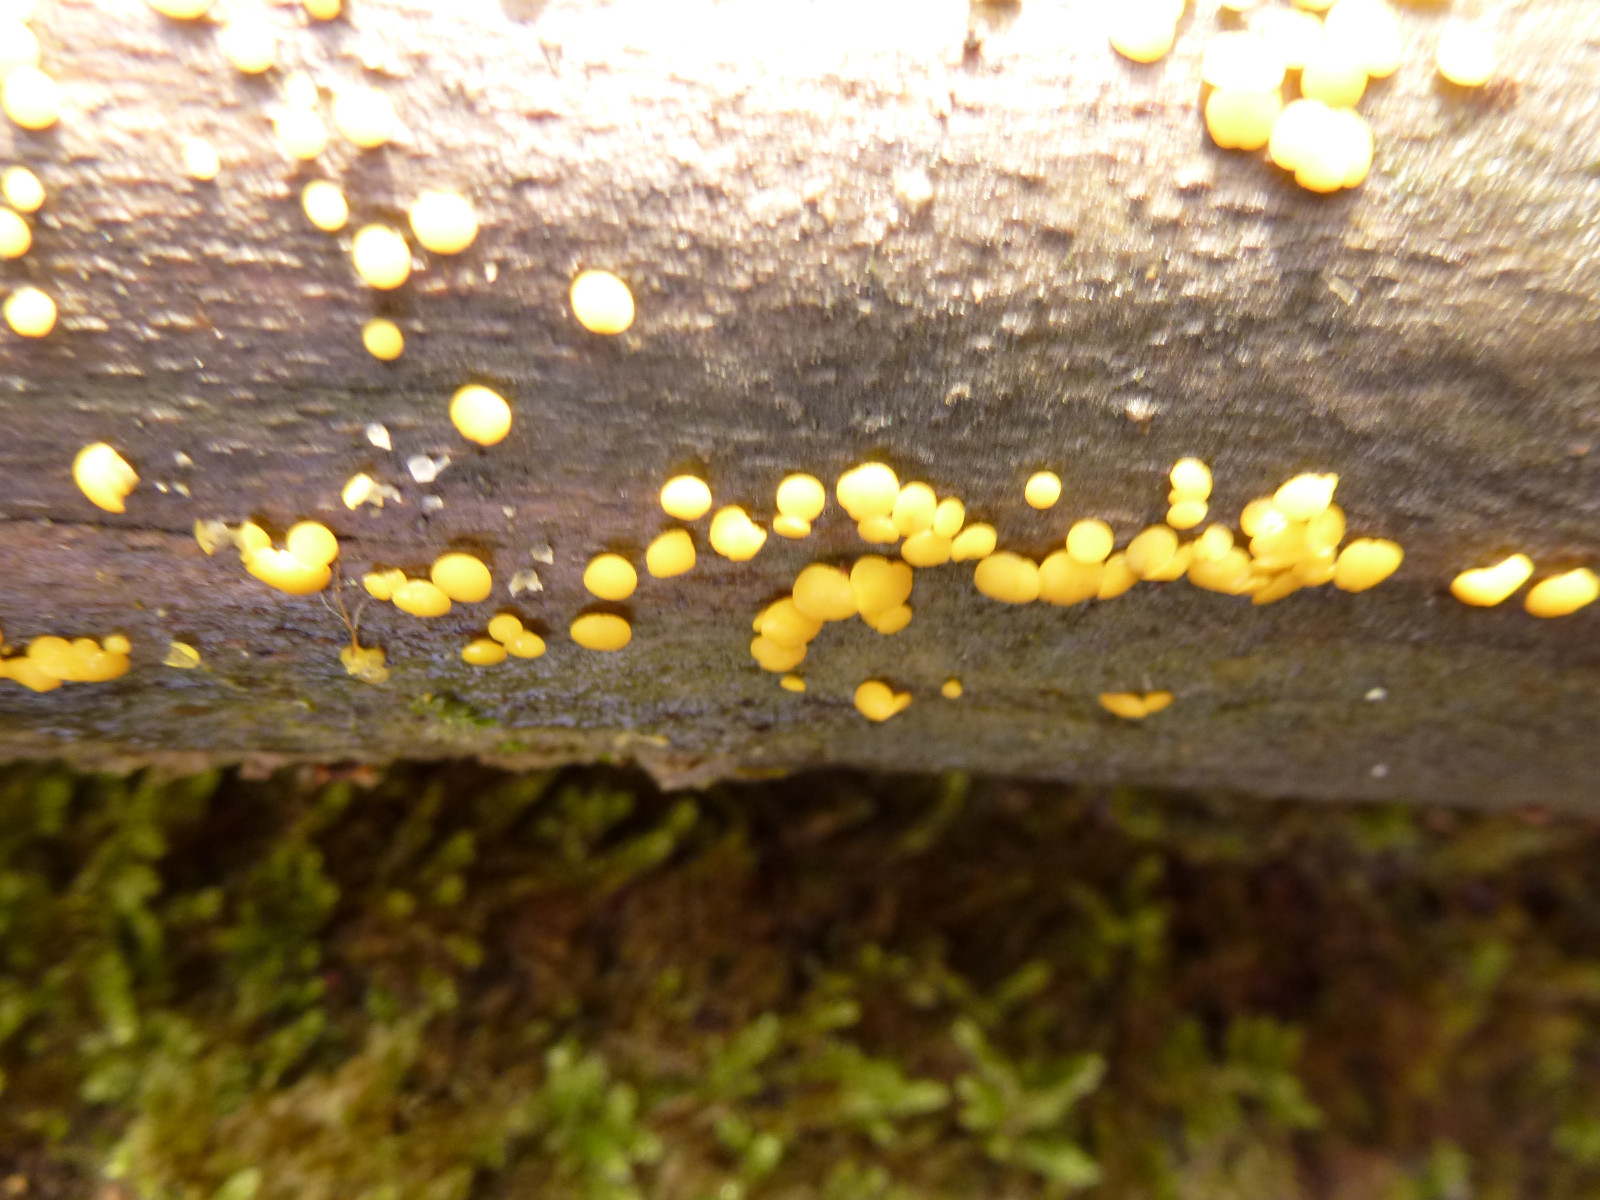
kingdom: Fungi
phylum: Ascomycota
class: Leotiomycetes
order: Helotiales
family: Pezizellaceae
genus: Calycina
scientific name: Calycina citrina
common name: almindelig gulskive
